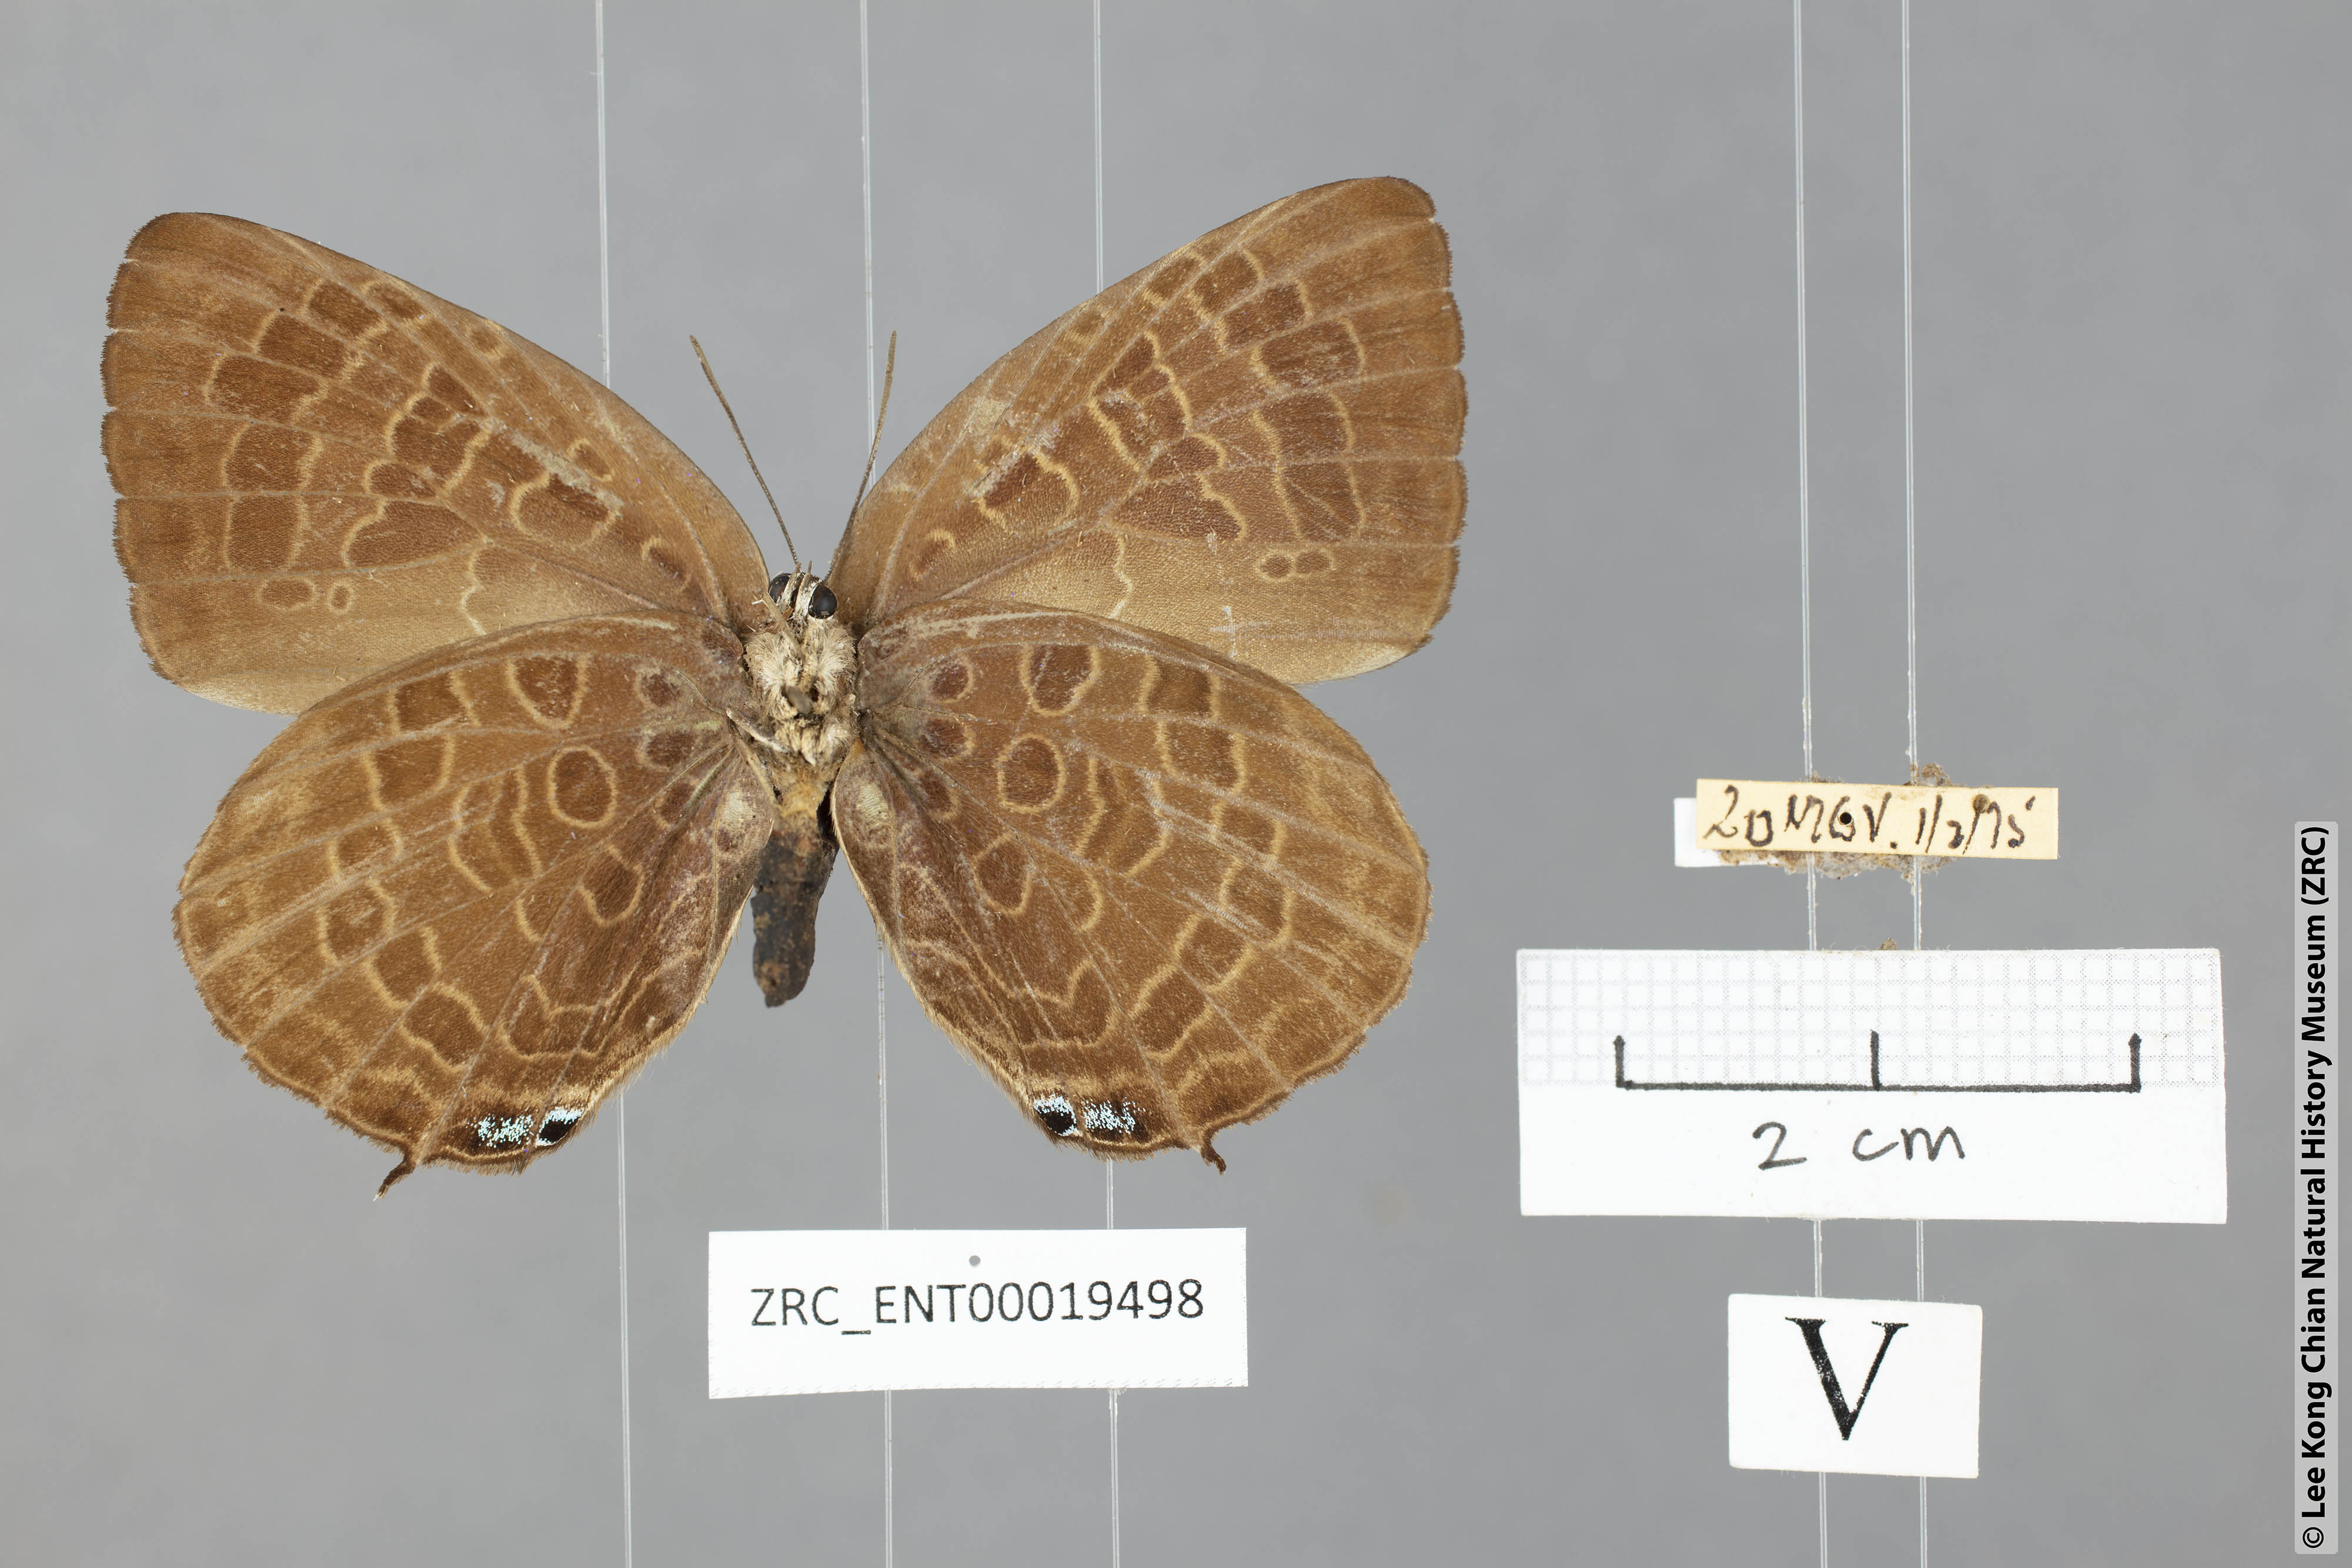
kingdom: Animalia
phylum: Arthropoda
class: Insecta
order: Lepidoptera
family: Lycaenidae
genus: Arhopala
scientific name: Arhopala hellada
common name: Long-banded oakblue
